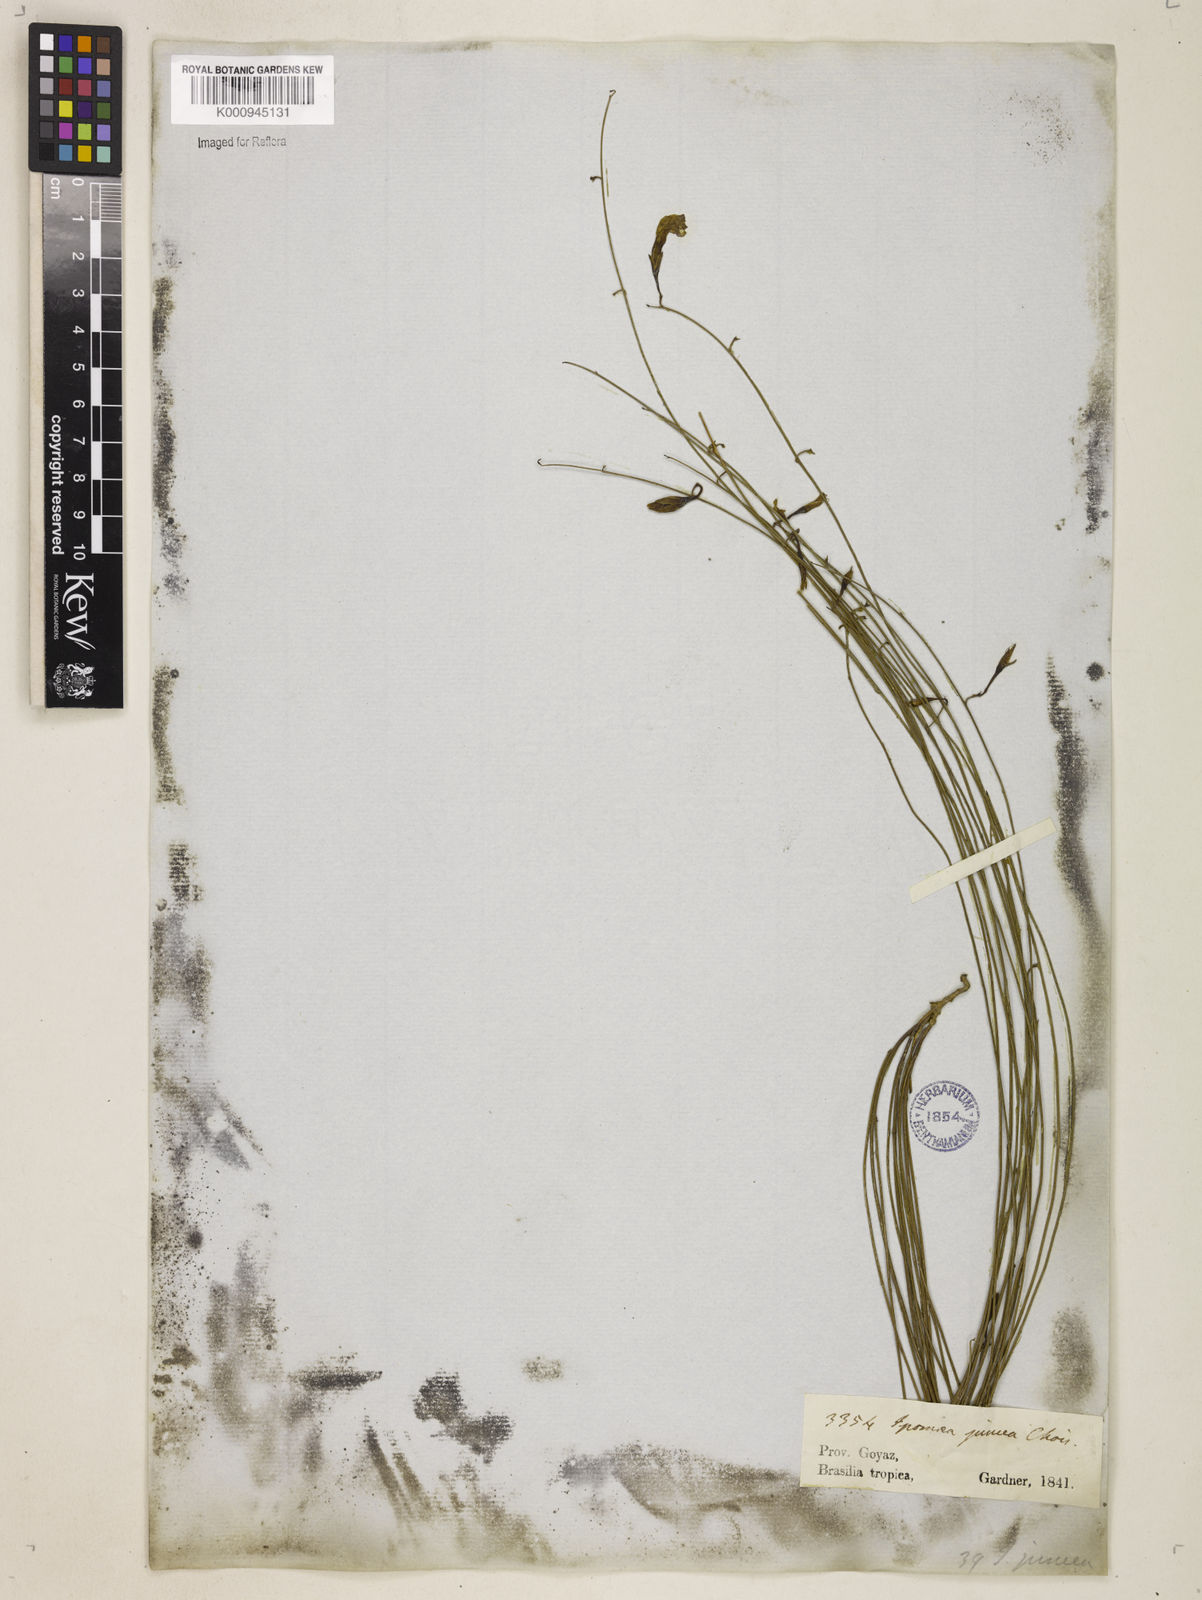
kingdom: Plantae
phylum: Tracheophyta
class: Magnoliopsida
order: Solanales
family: Convolvulaceae
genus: Distimake
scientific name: Distimake aturensis
